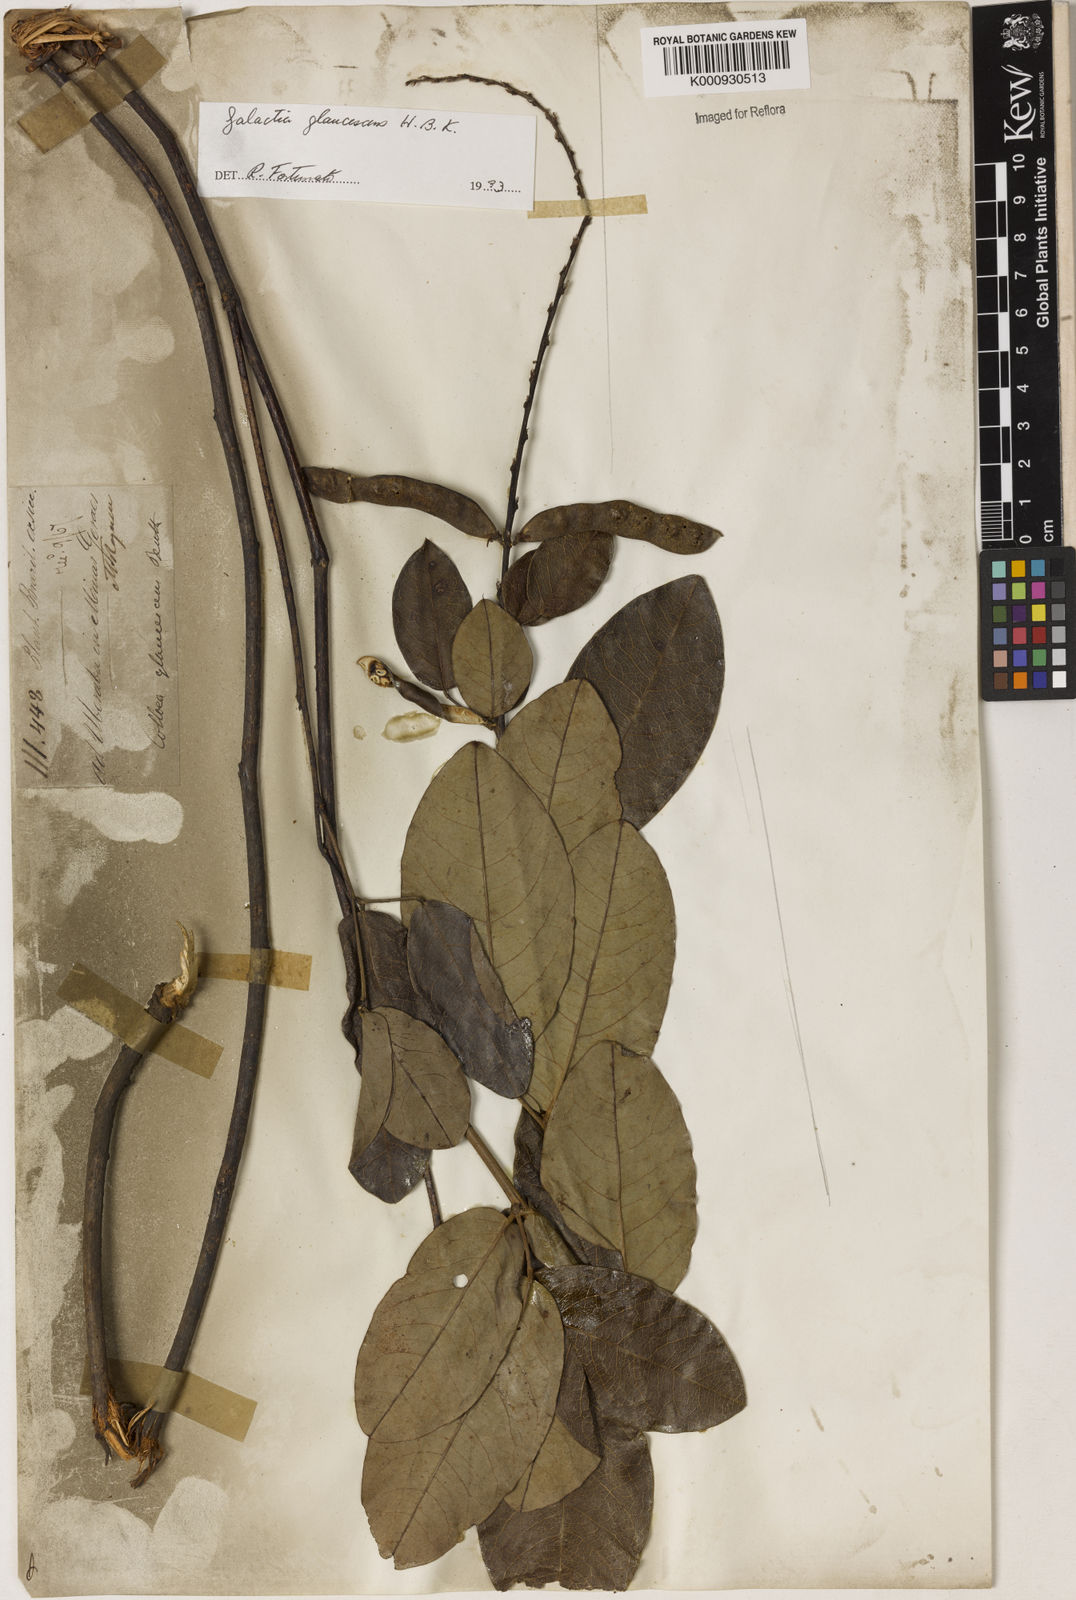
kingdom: Plantae
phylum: Tracheophyta
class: Magnoliopsida
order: Fabales
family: Fabaceae
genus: Galactia
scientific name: Galactia glaucescens
